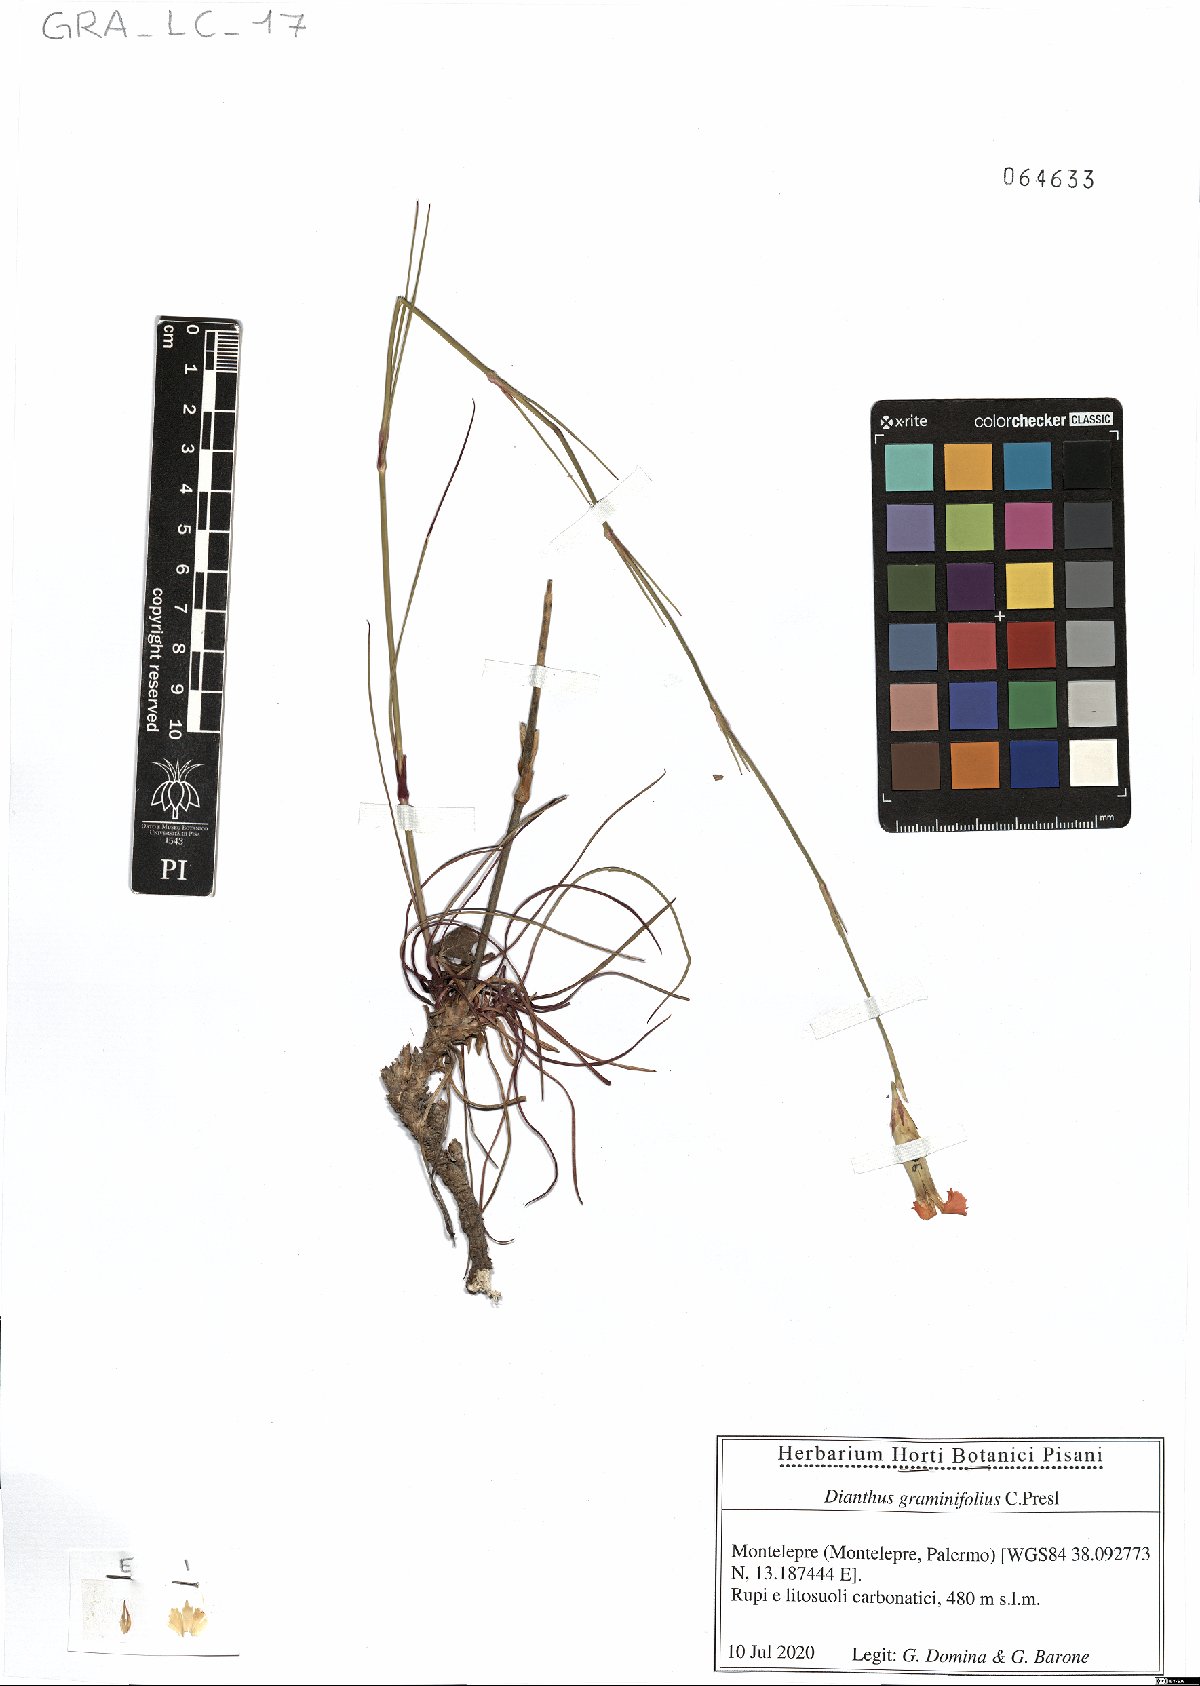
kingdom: Plantae
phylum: Tracheophyta
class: Magnoliopsida
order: Caryophyllales
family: Caryophyllaceae
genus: Dianthus
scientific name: Dianthus graminifolius
